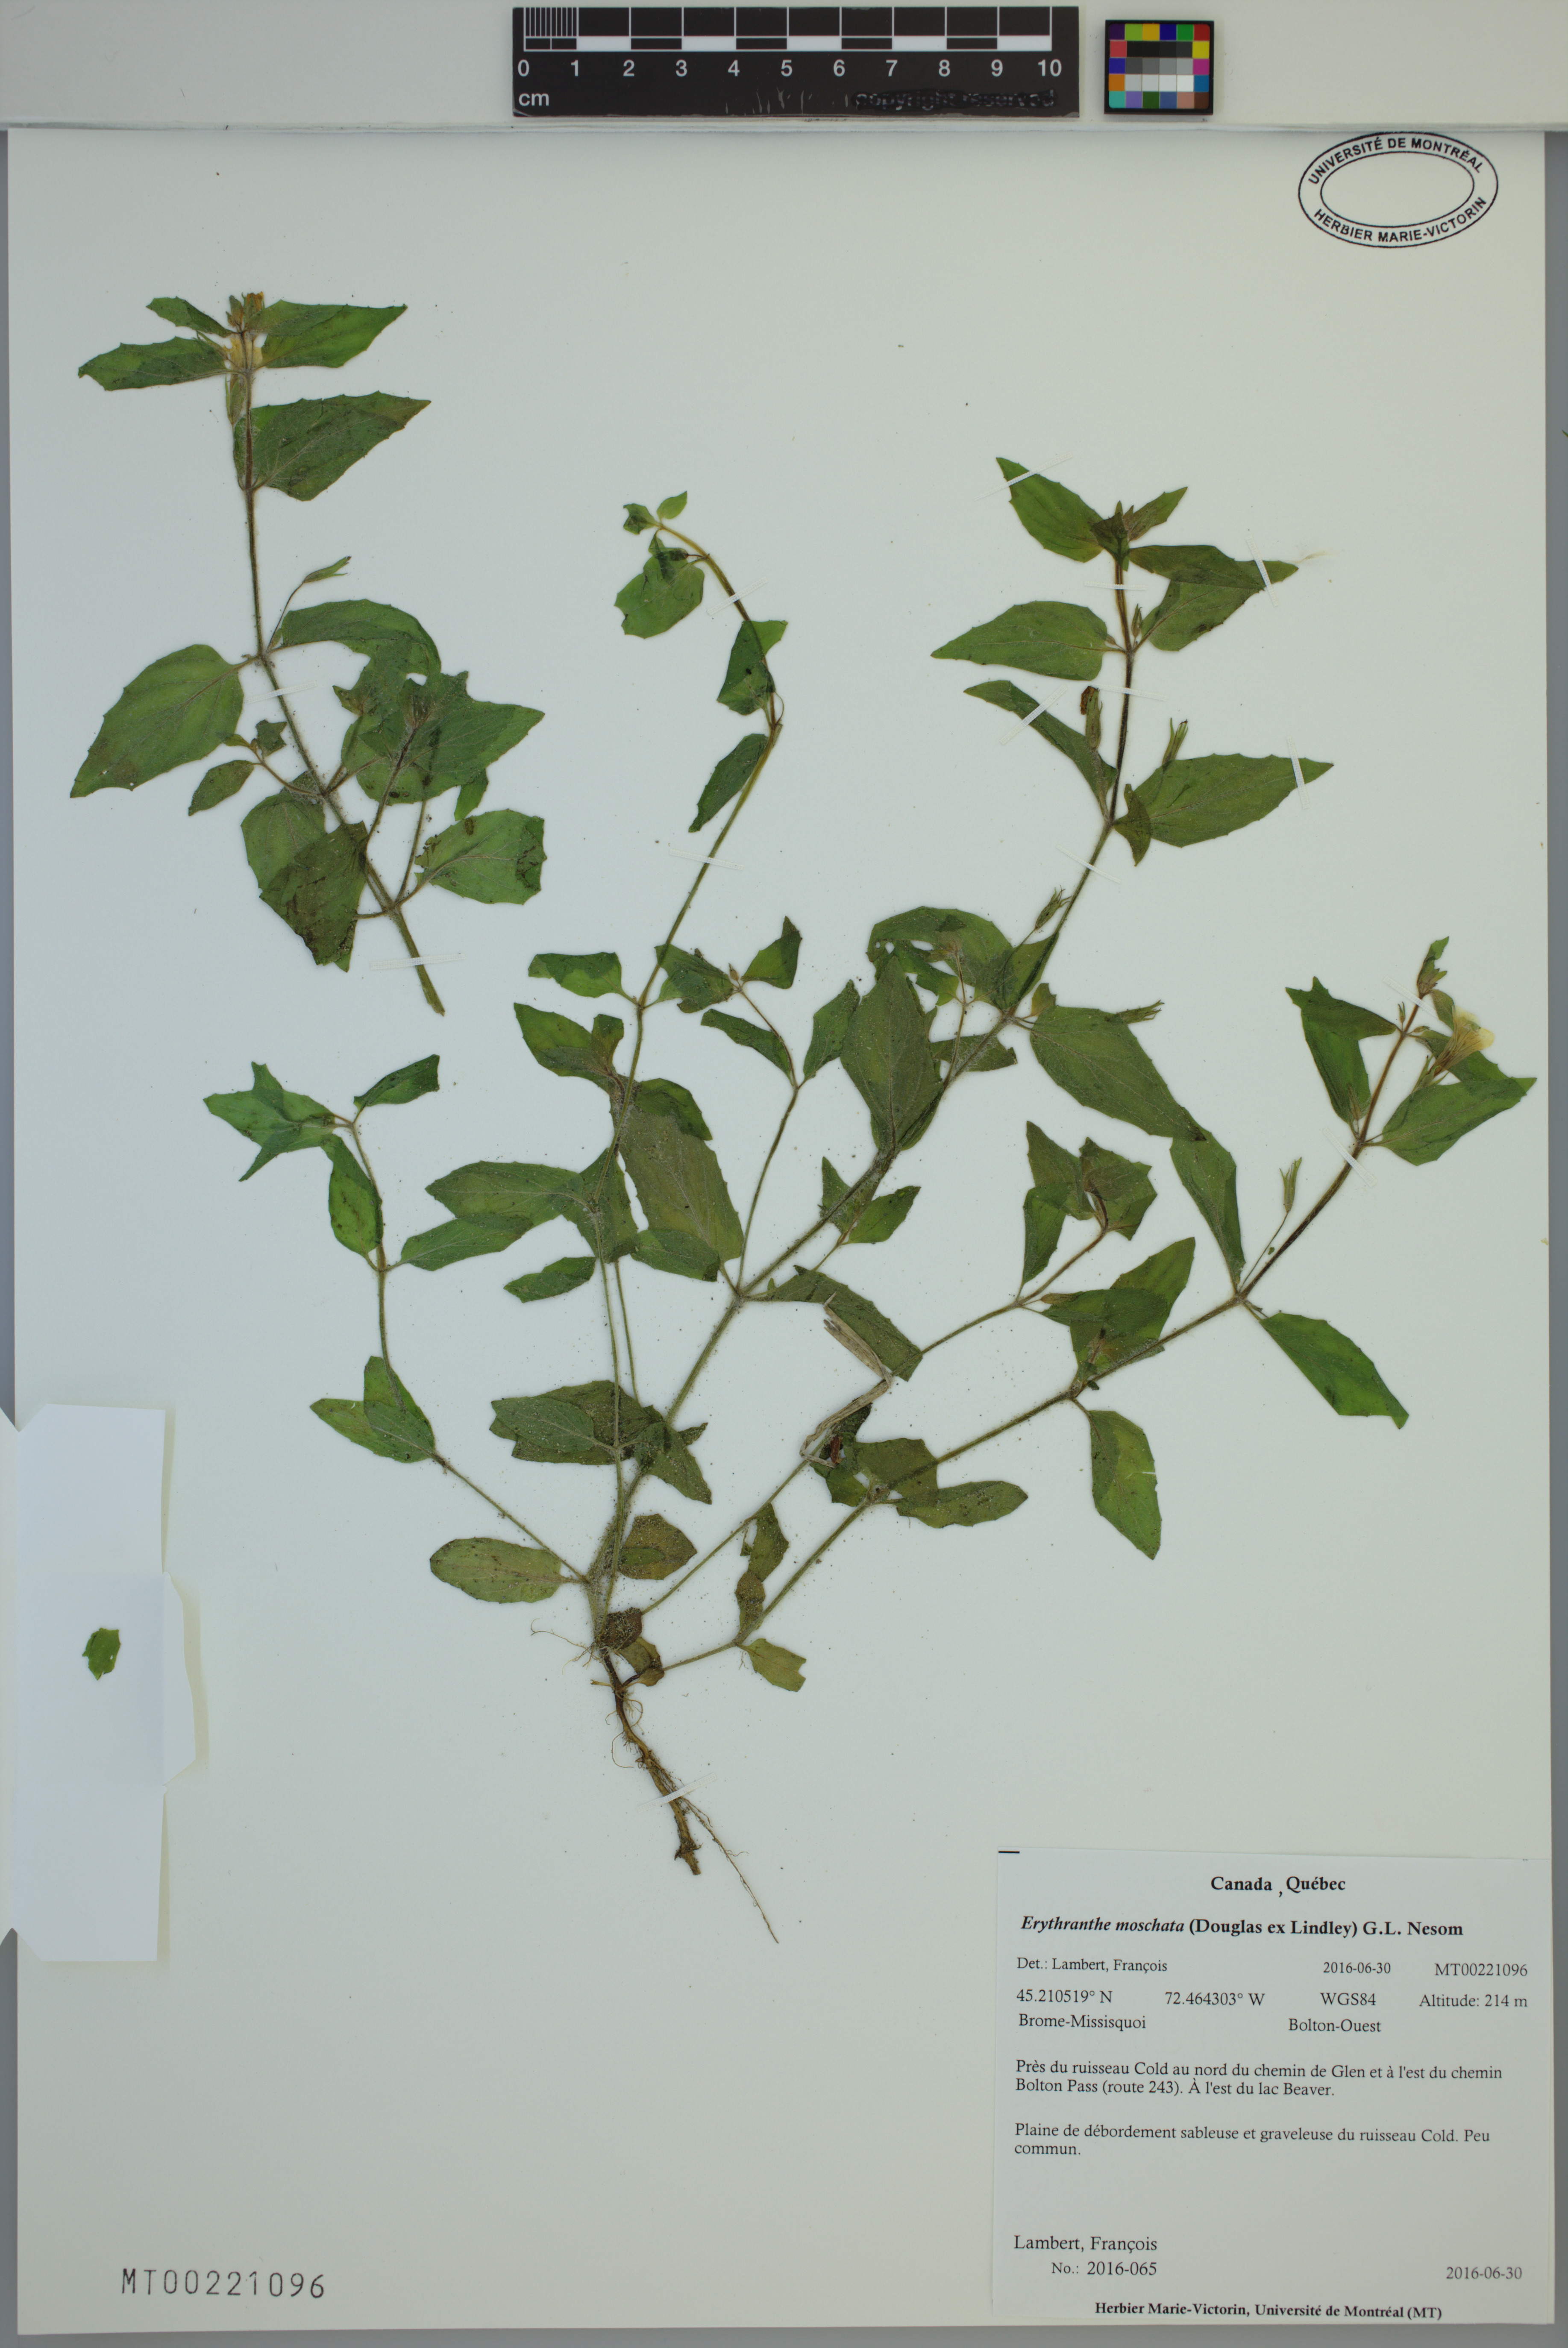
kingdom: Plantae
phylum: Tracheophyta
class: Magnoliopsida
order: Lamiales
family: Phrymaceae
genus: Erythranthe
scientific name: Erythranthe moschata
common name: Muskflower
